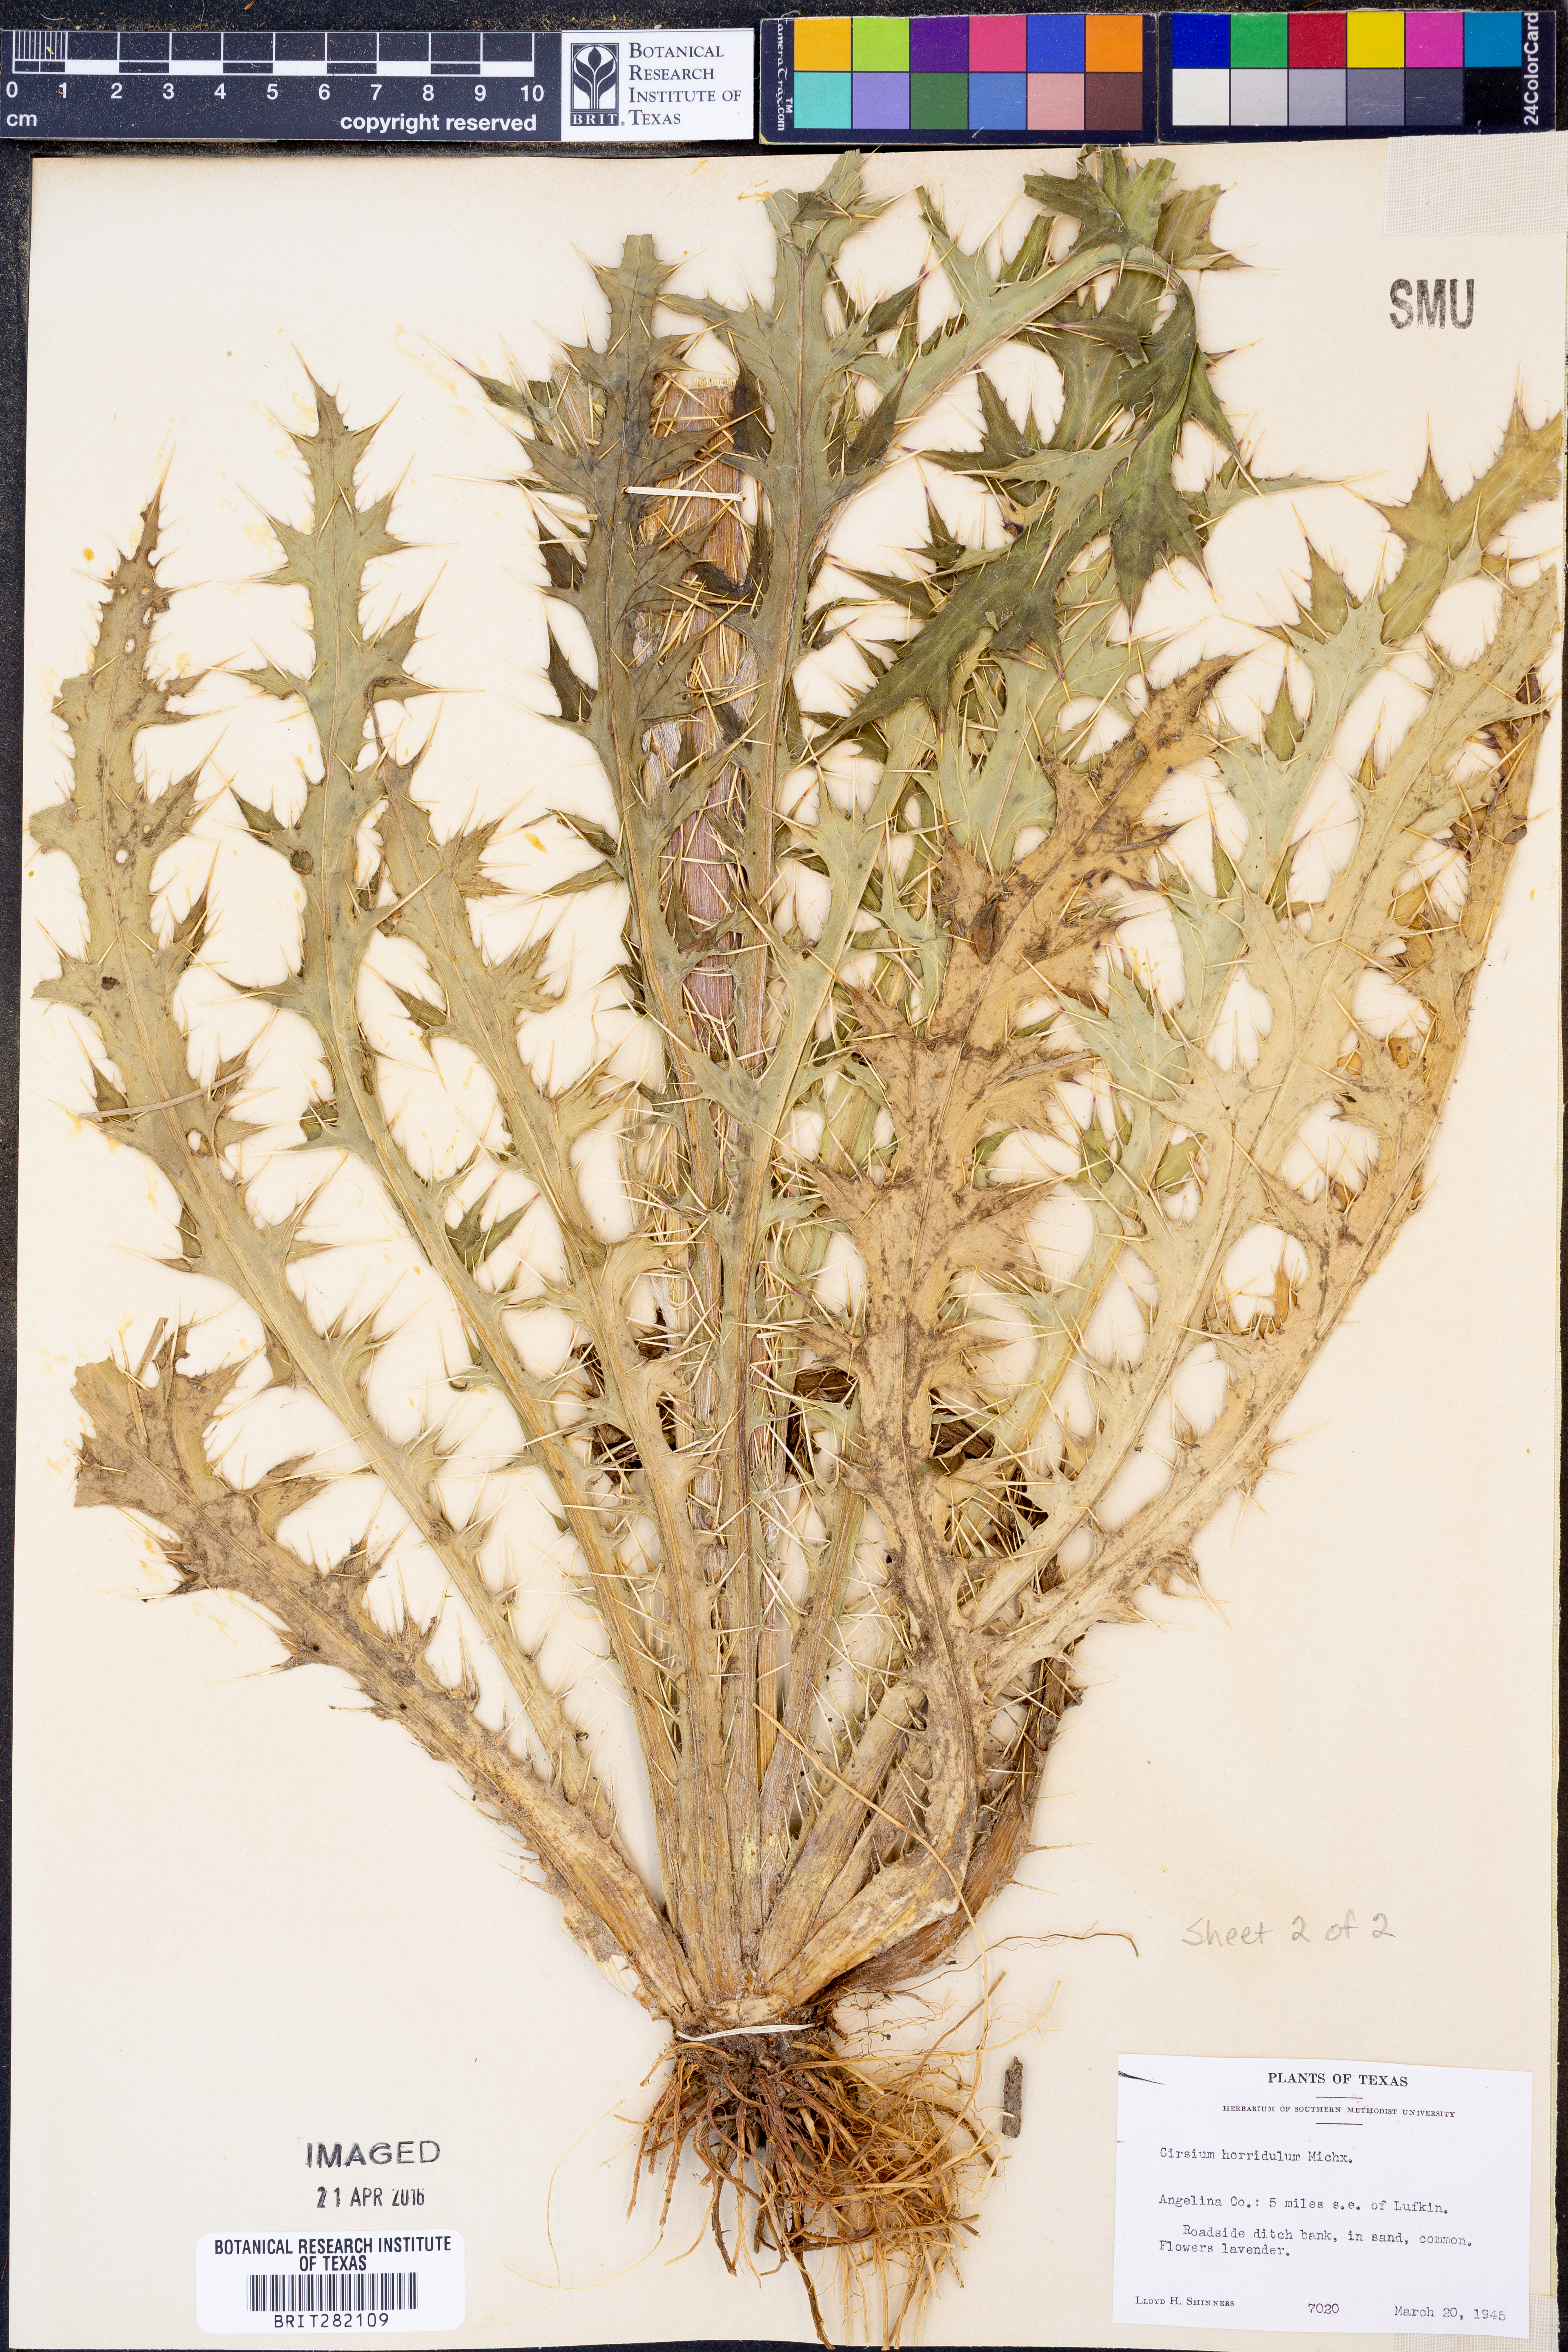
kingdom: Plantae
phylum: Tracheophyta
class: Magnoliopsida
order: Asterales
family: Asteraceae
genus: Cirsium
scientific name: Cirsium horridulum
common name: Bristly thistle
